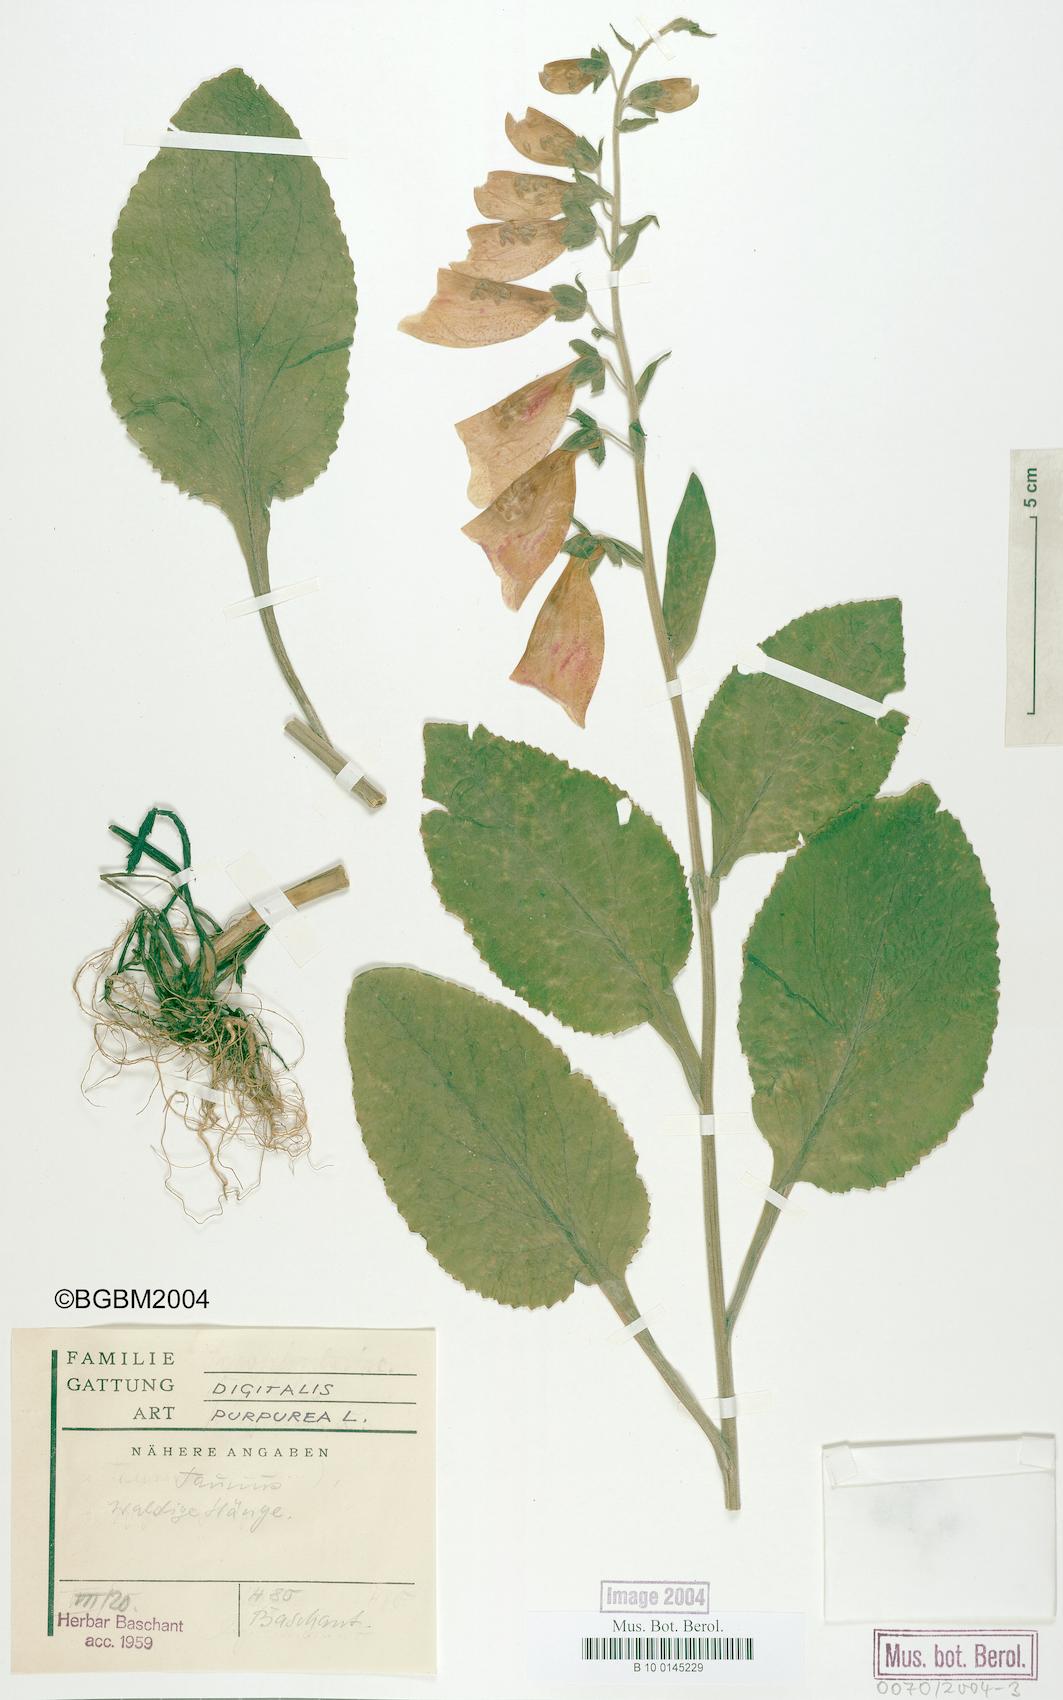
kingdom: Plantae
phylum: Tracheophyta
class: Magnoliopsida
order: Lamiales
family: Plantaginaceae
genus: Digitalis
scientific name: Digitalis purpurea
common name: Foxglove
